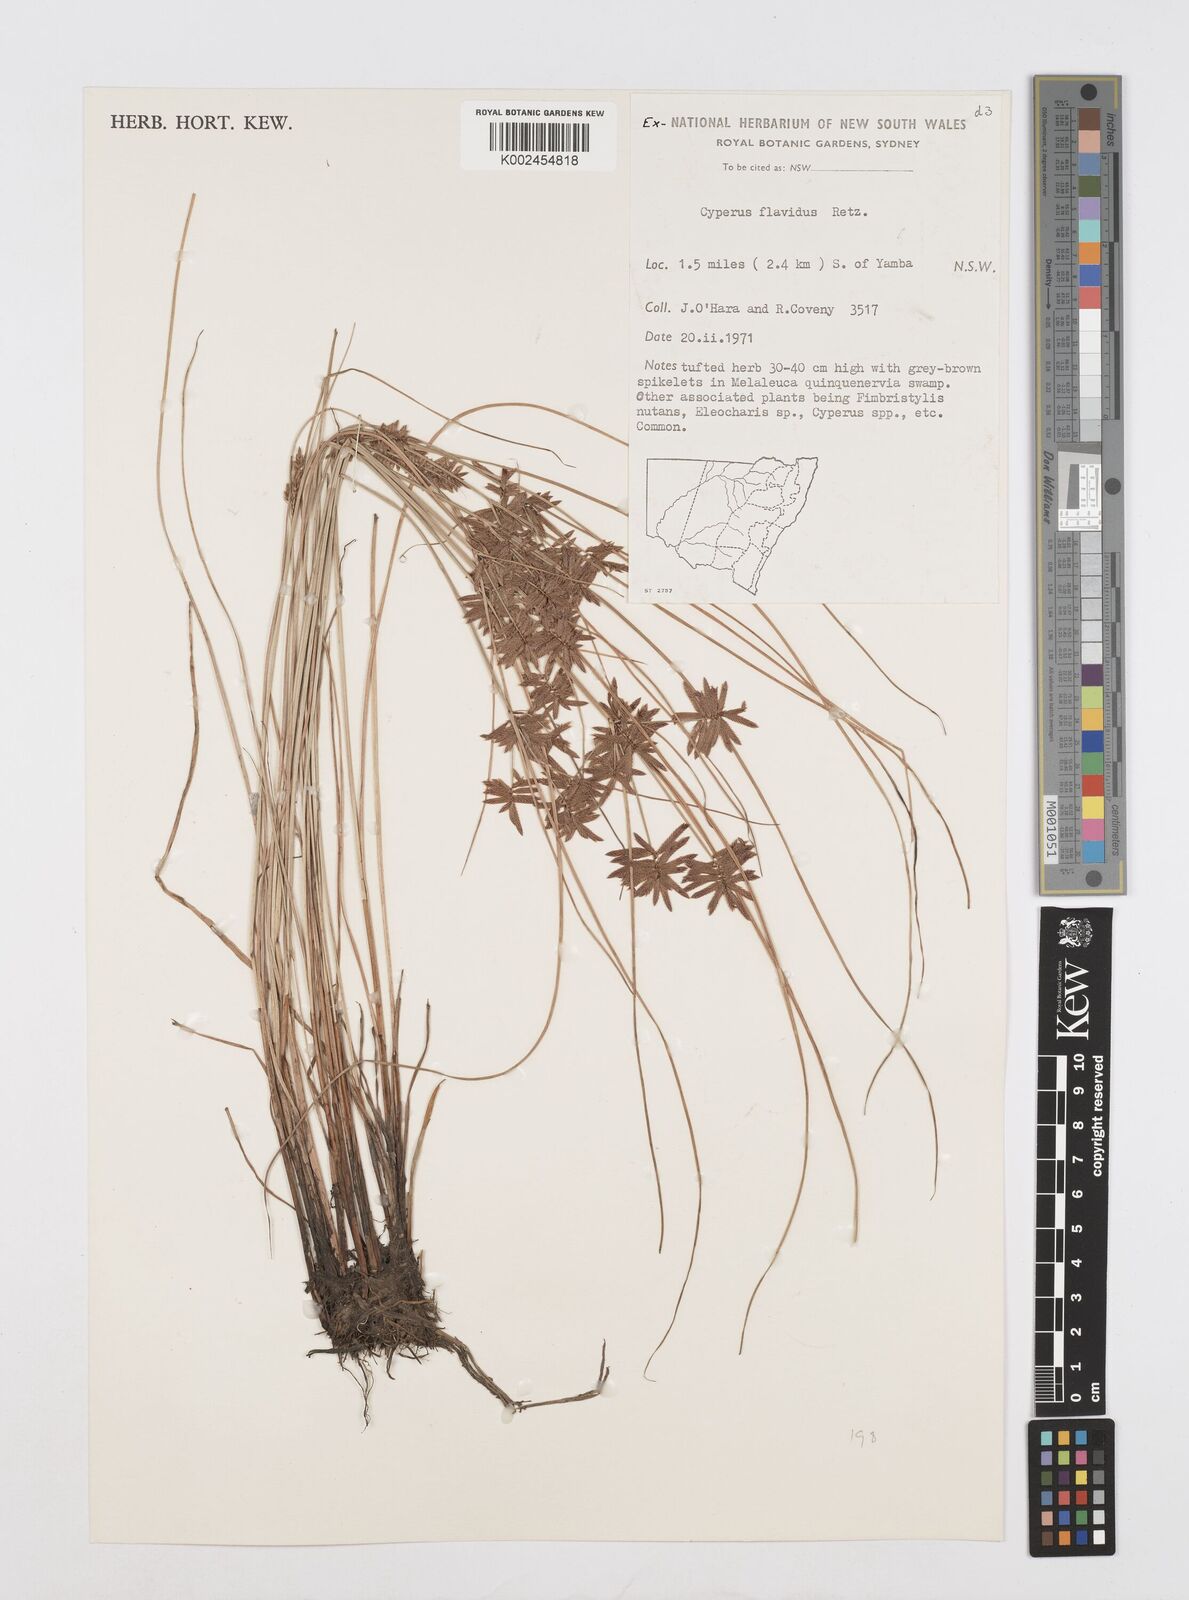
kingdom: Plantae
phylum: Tracheophyta
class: Liliopsida
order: Poales
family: Cyperaceae
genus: Cyperus
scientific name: Cyperus flavidus
